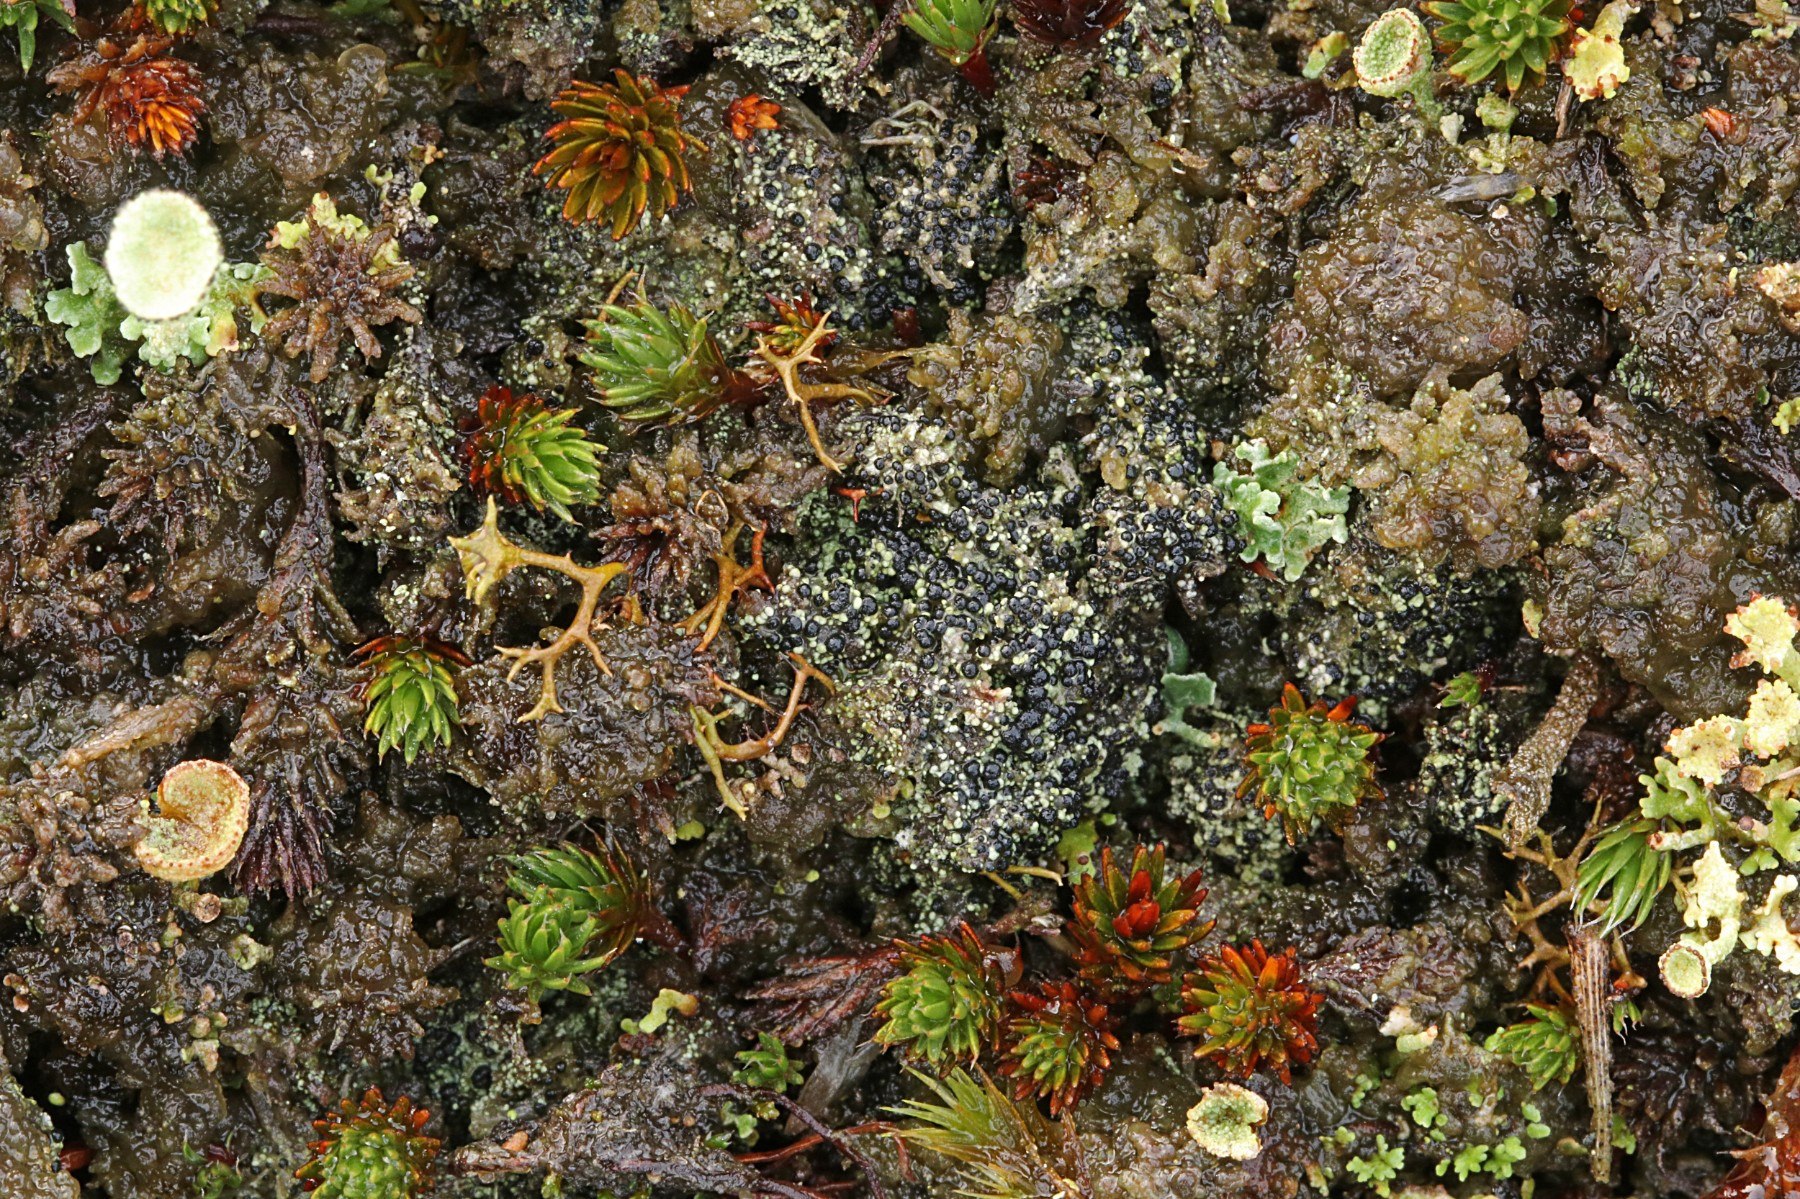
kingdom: Fungi
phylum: Ascomycota
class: Lecanoromycetes
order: Lecanorales
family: Byssolomataceae
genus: Micarea
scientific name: Micarea lignaria
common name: tørve-knaplav
